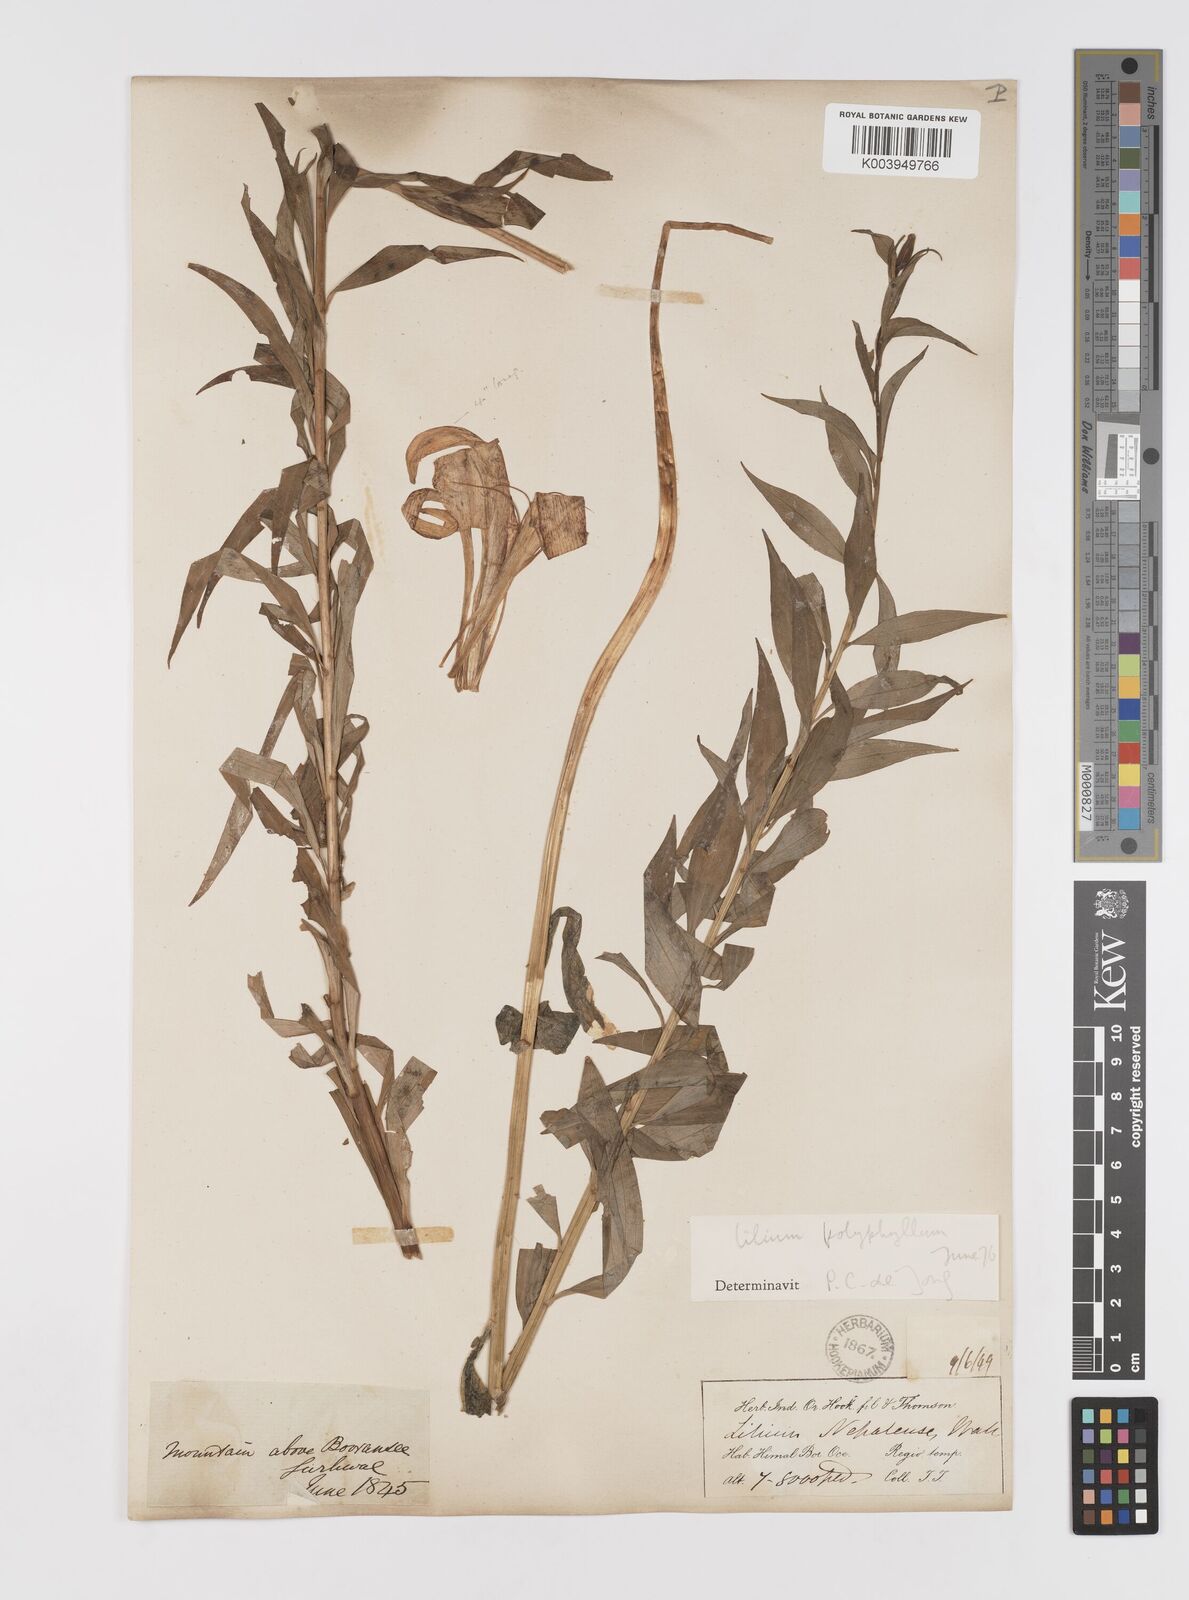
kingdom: Plantae
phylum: Tracheophyta
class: Liliopsida
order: Liliales
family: Liliaceae
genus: Lilium
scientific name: Lilium polyphyllum
